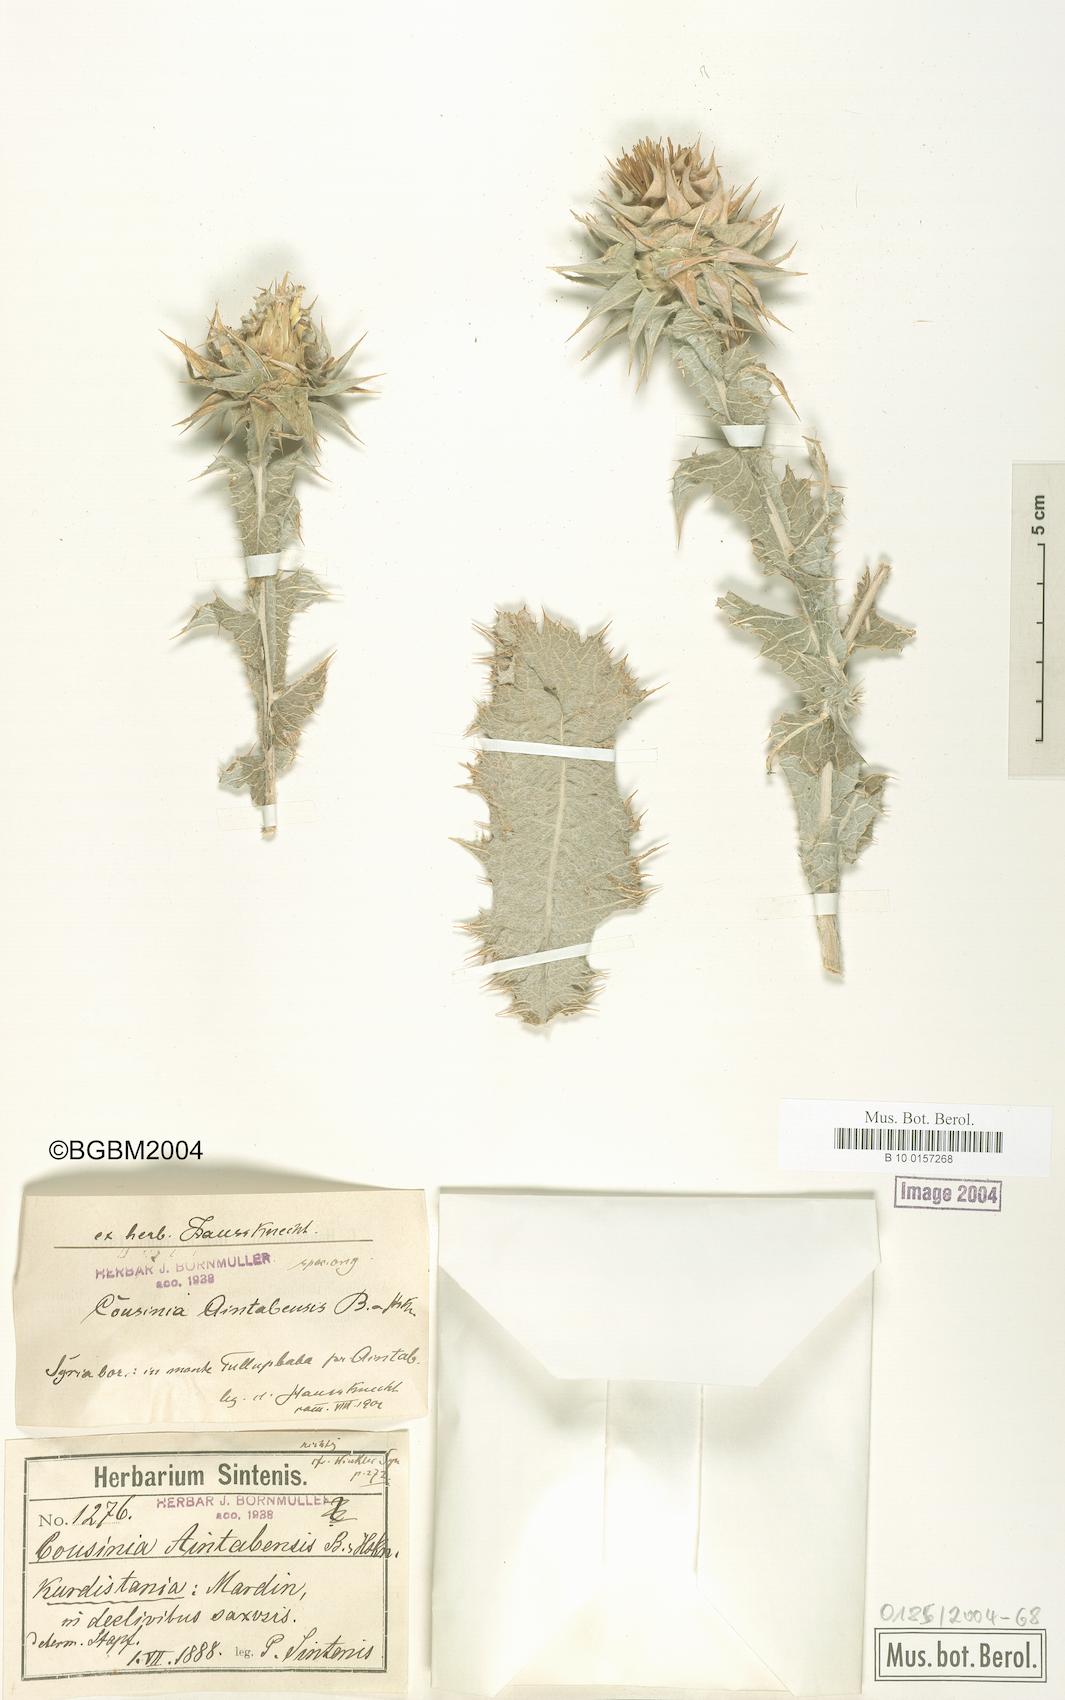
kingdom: Plantae
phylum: Tracheophyta
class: Magnoliopsida
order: Asterales
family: Asteraceae
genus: Cousinia
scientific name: Cousinia aintabensis
